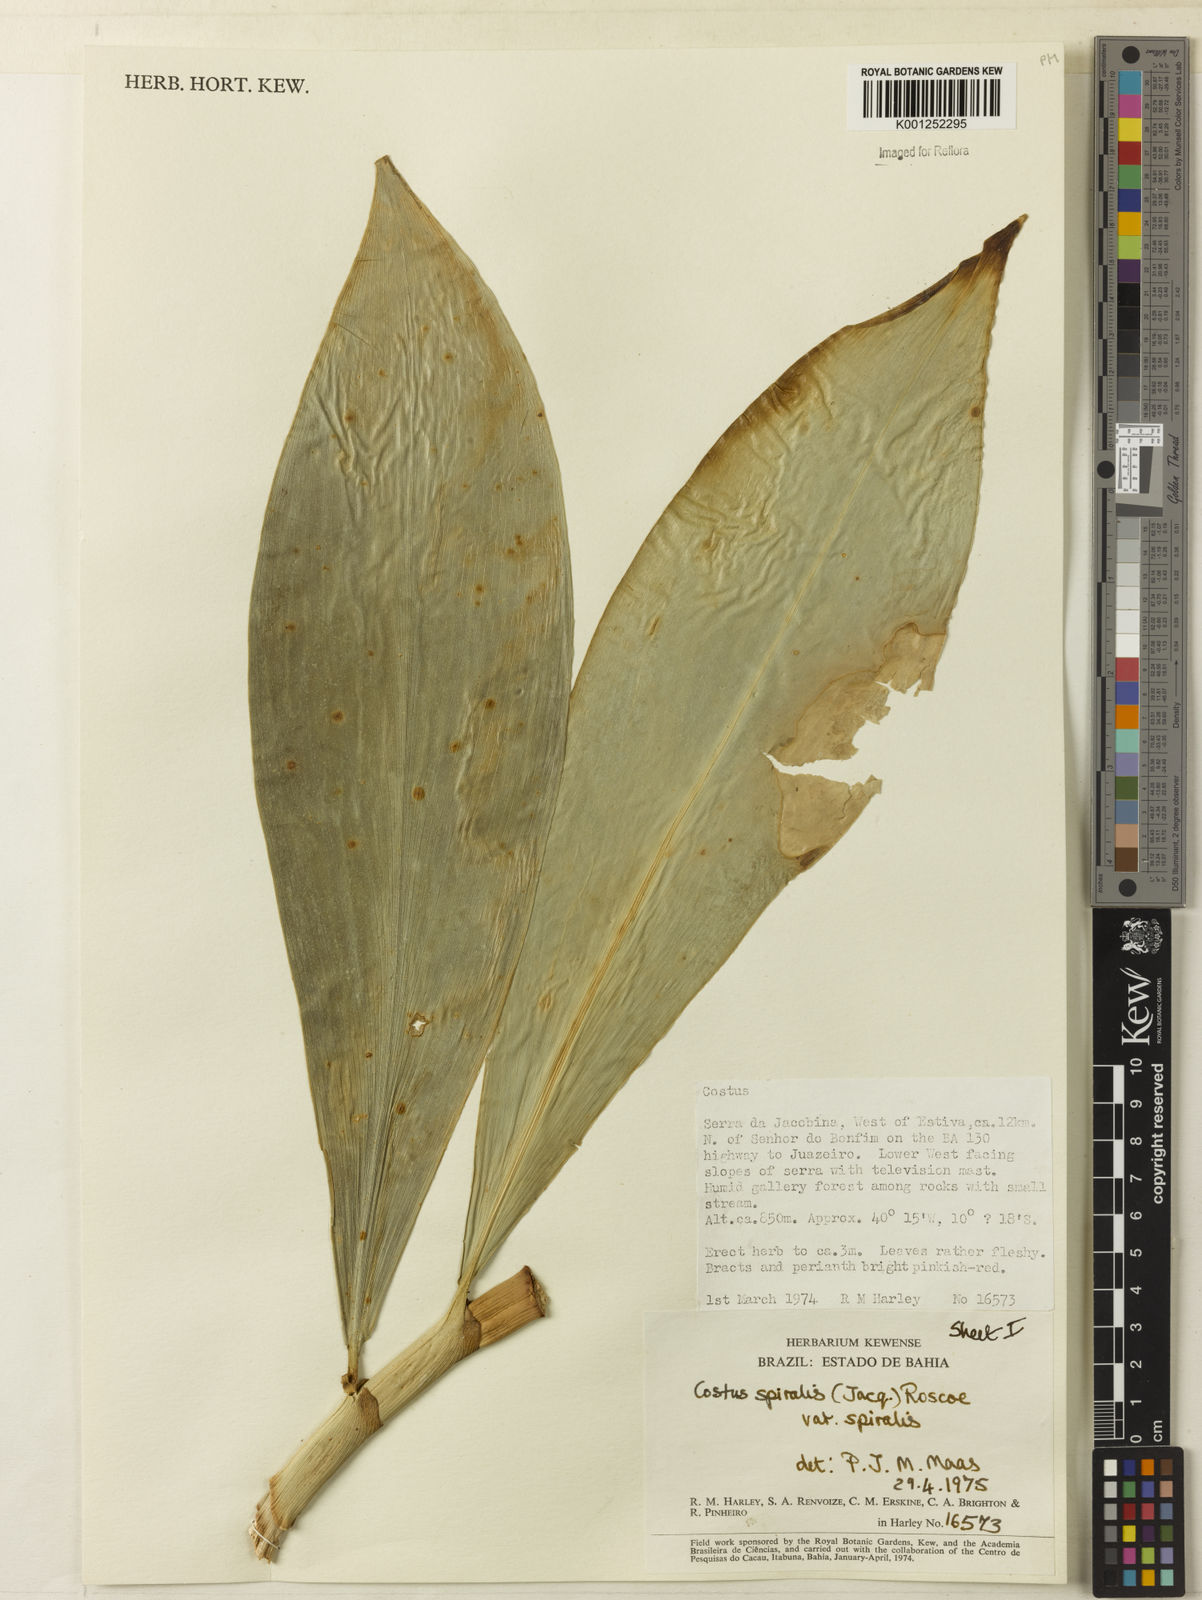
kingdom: Plantae
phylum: Tracheophyta
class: Liliopsida
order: Zingiberales
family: Costaceae
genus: Costus
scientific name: Costus spiralis
